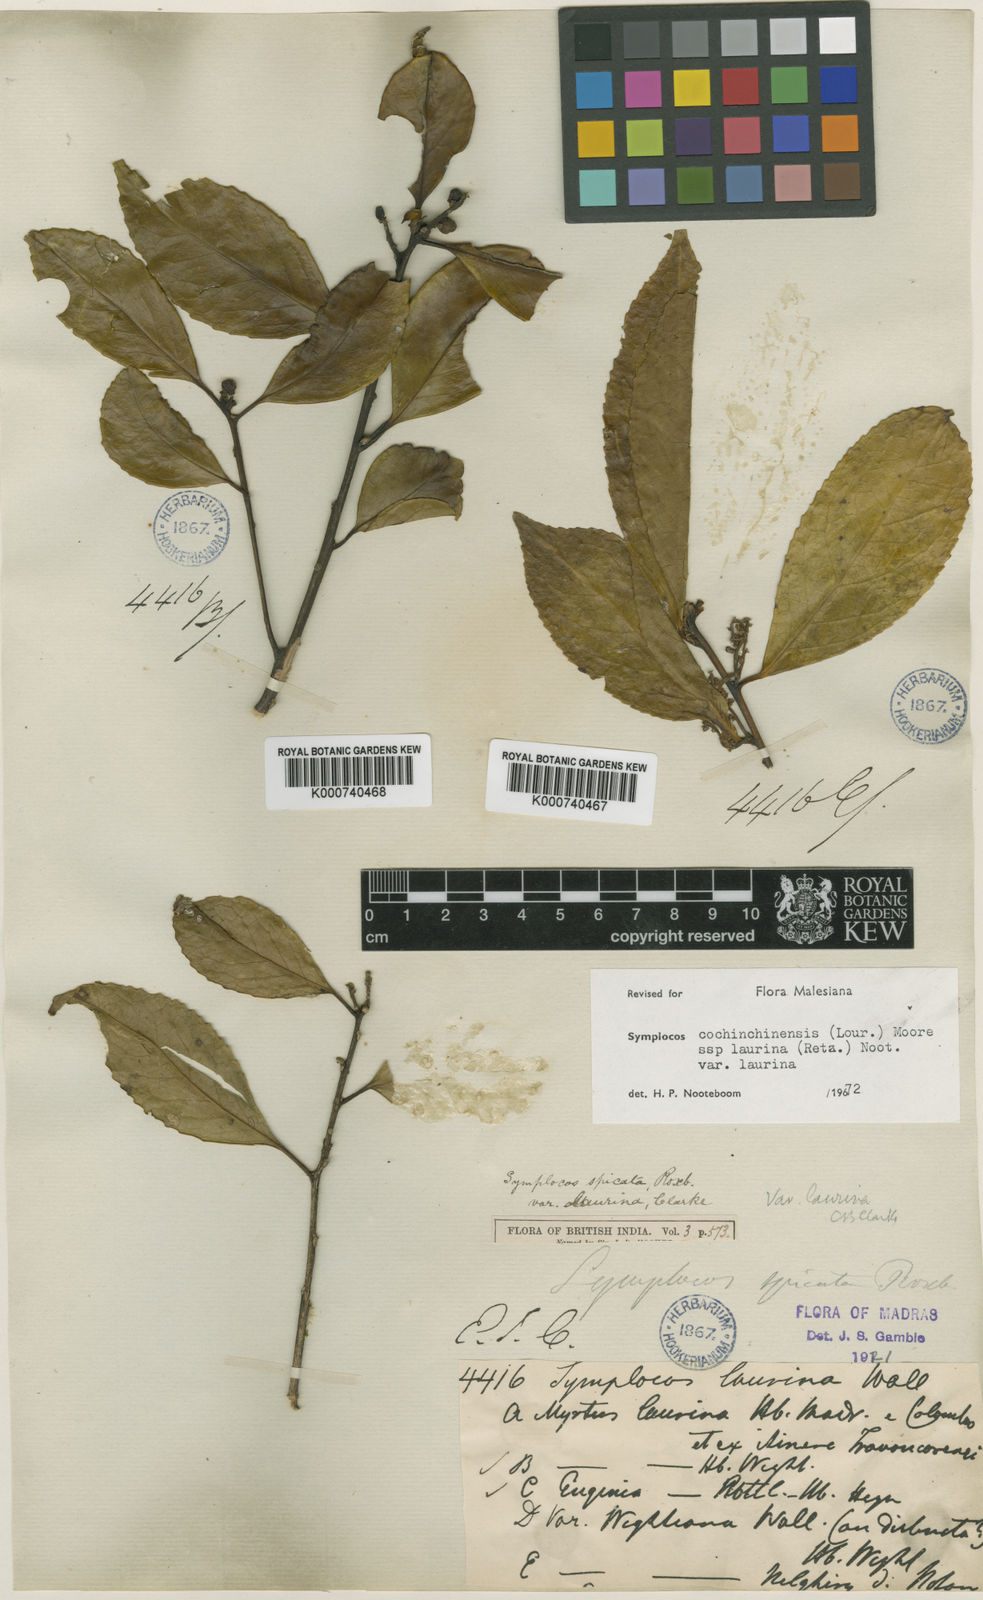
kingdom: Plantae
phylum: Tracheophyta
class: Magnoliopsida
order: Ericales
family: Symplocaceae
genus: Symplocos
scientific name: Symplocos cochinchinensis
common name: Buff hazelwood
